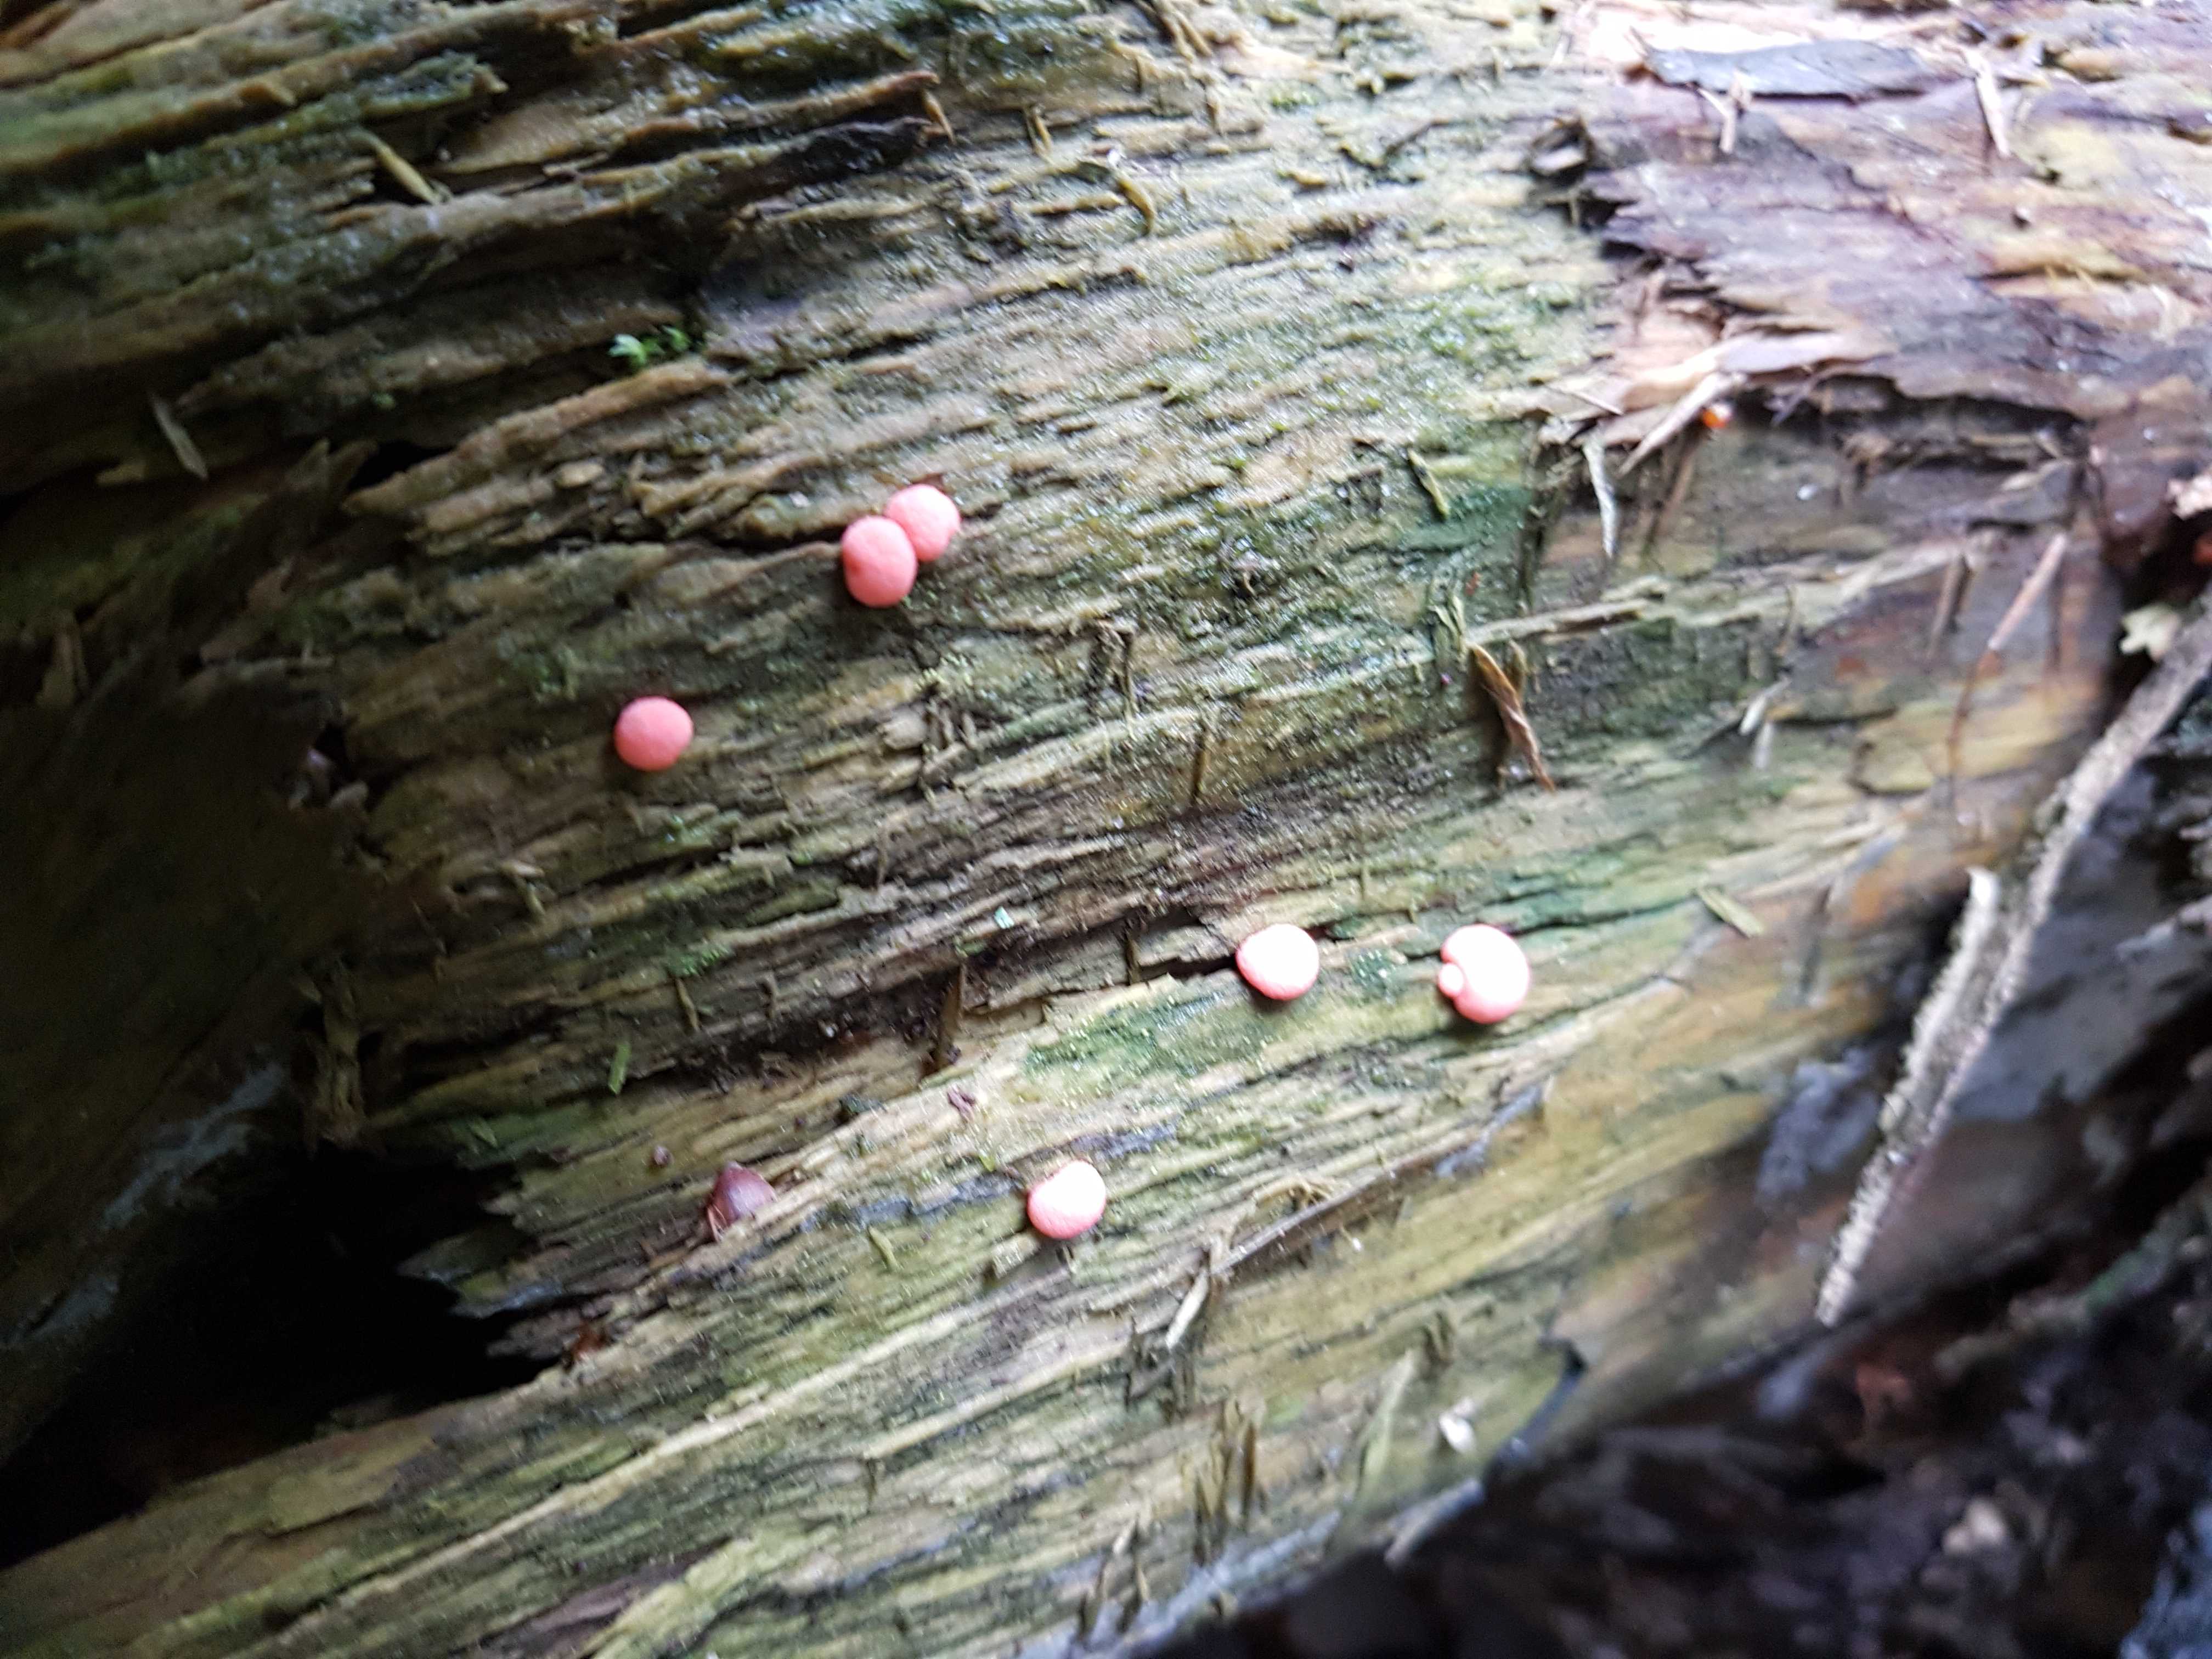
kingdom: Protozoa
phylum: Mycetozoa
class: Myxomycetes
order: Cribrariales
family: Tubiferaceae
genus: Lycogala
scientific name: Lycogala epidendrum
